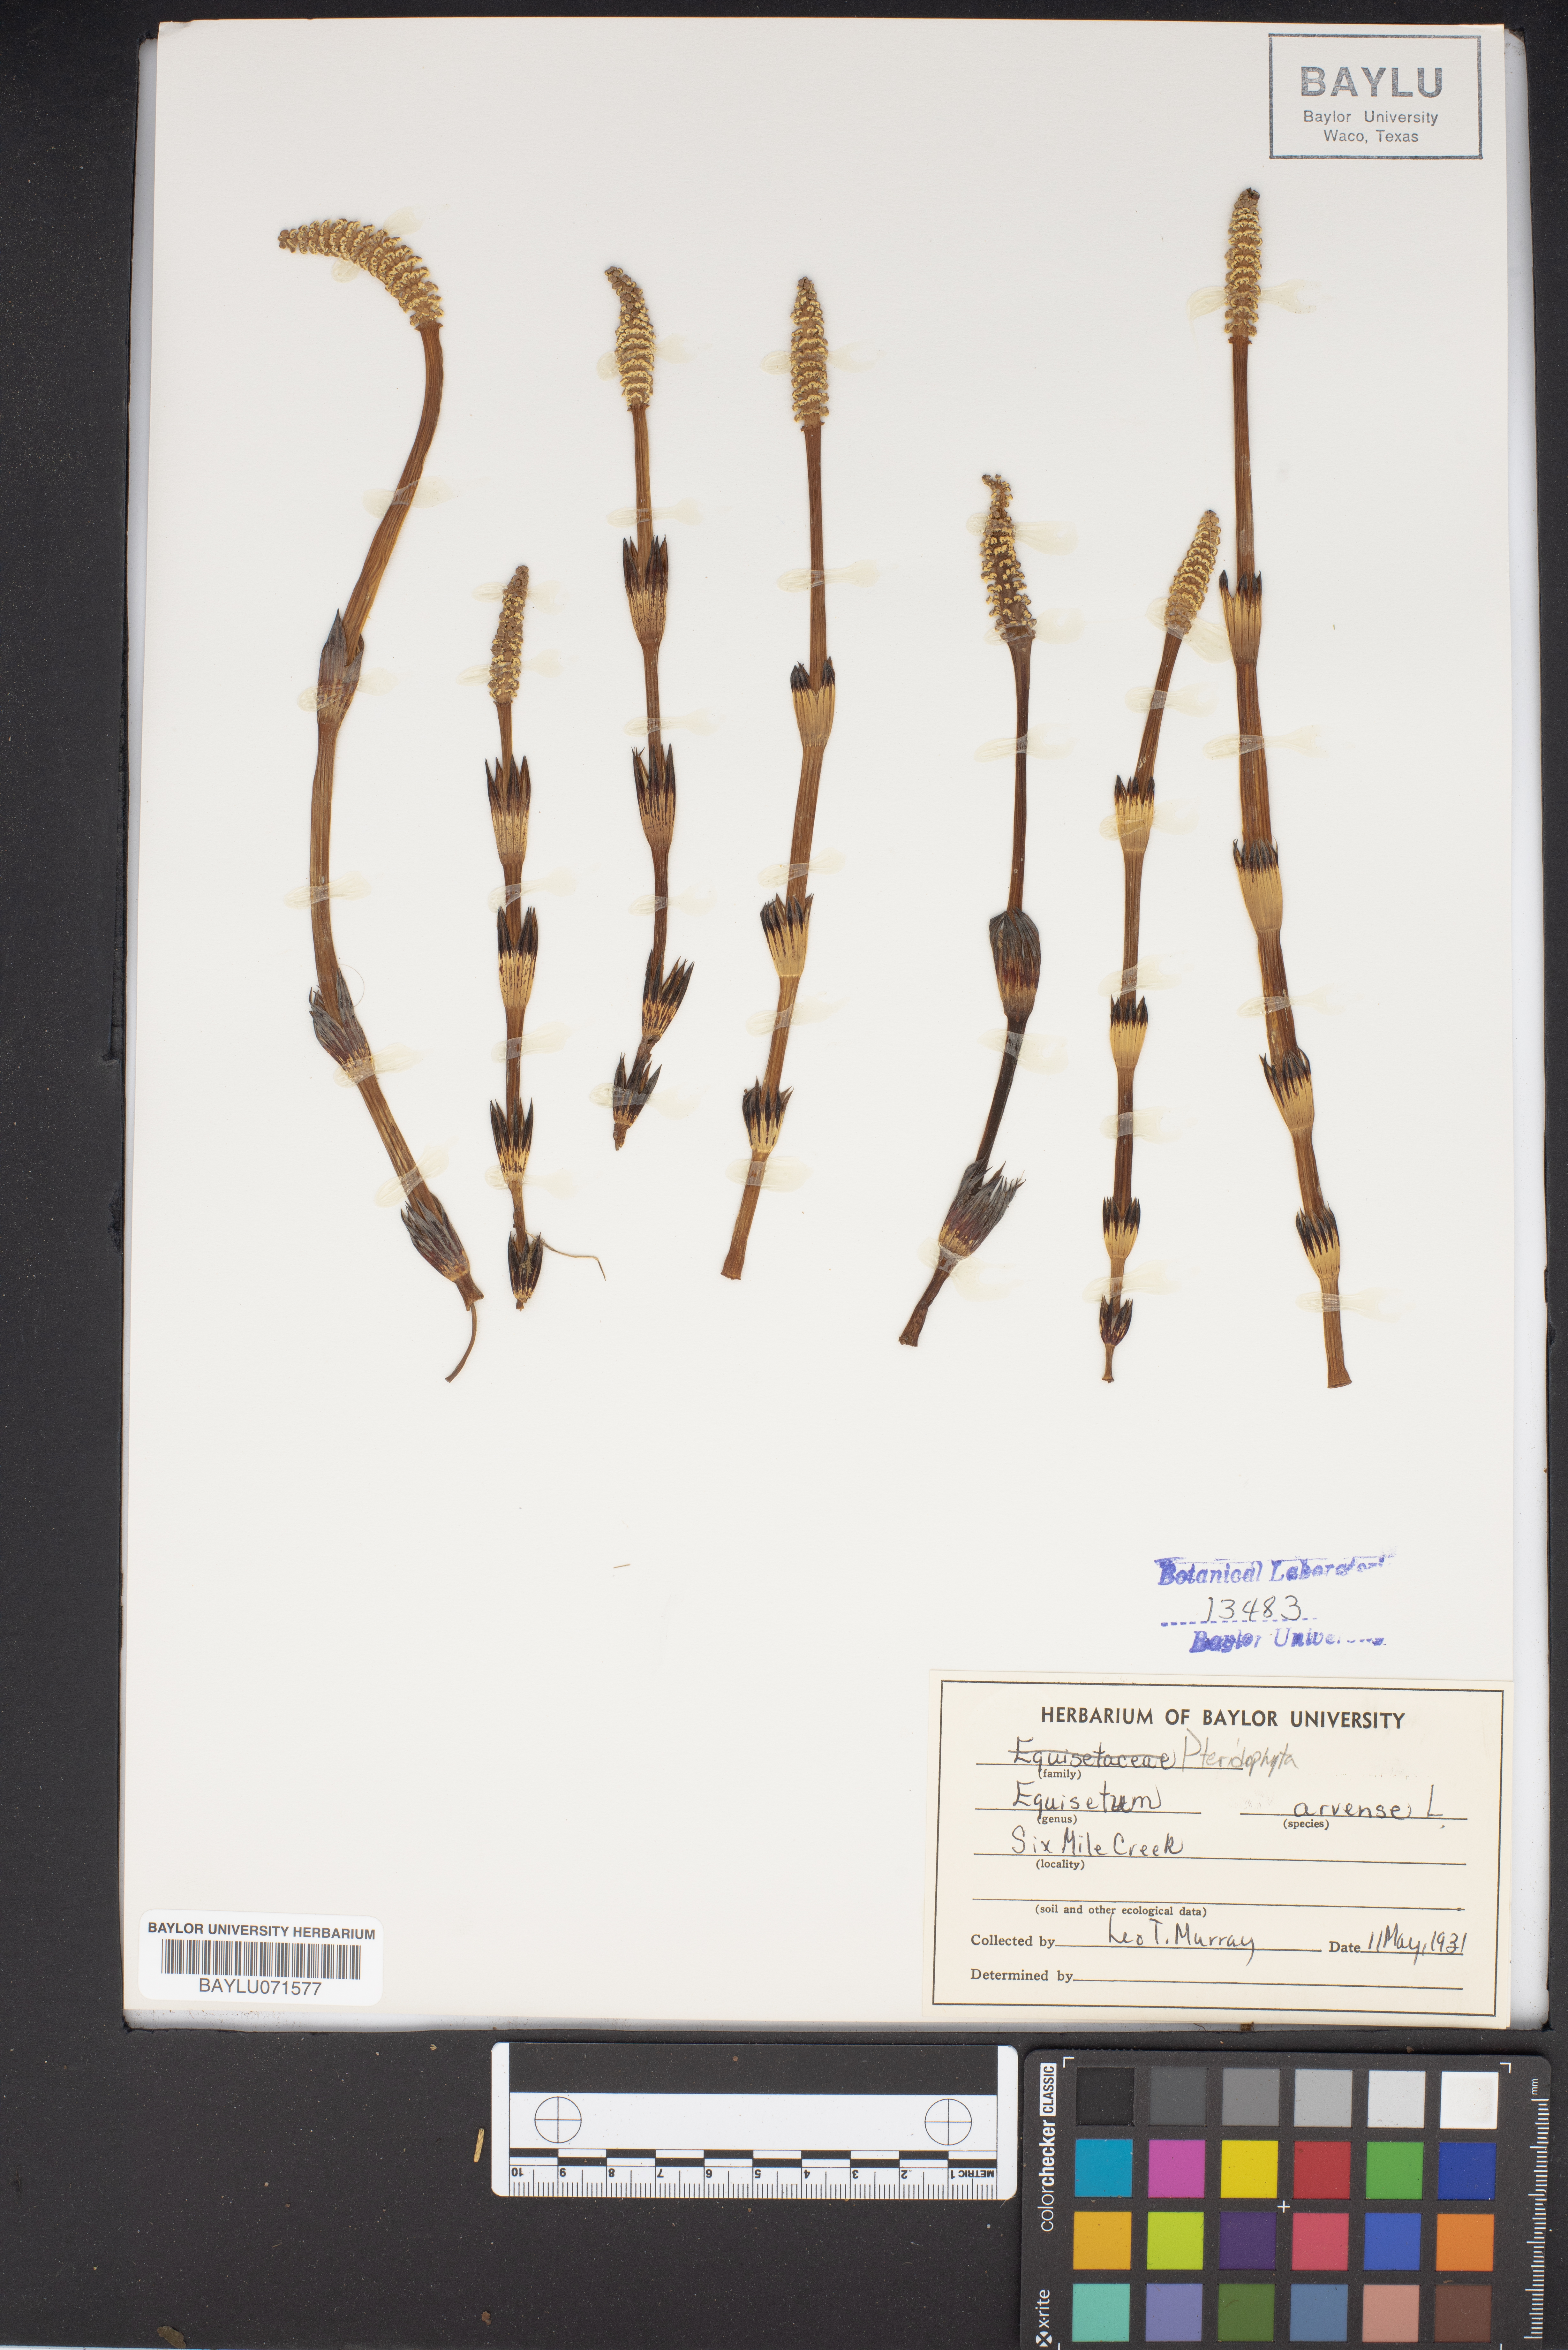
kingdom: Plantae
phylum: Tracheophyta
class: Polypodiopsida
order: Equisetales
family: Equisetaceae
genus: Equisetum
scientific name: Equisetum arvense
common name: Field horsetail
